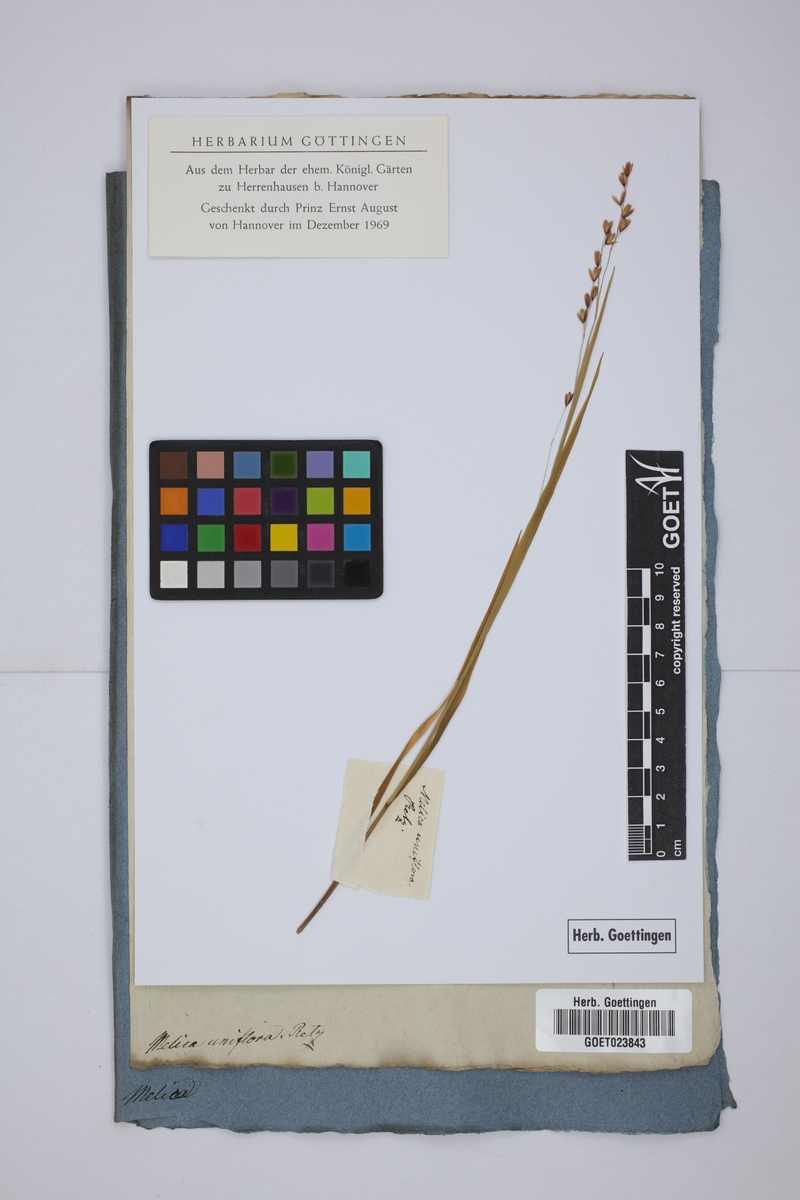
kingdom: Plantae
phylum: Tracheophyta
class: Liliopsida
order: Poales
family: Poaceae
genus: Melica
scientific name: Melica uniflora
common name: Wood melick
